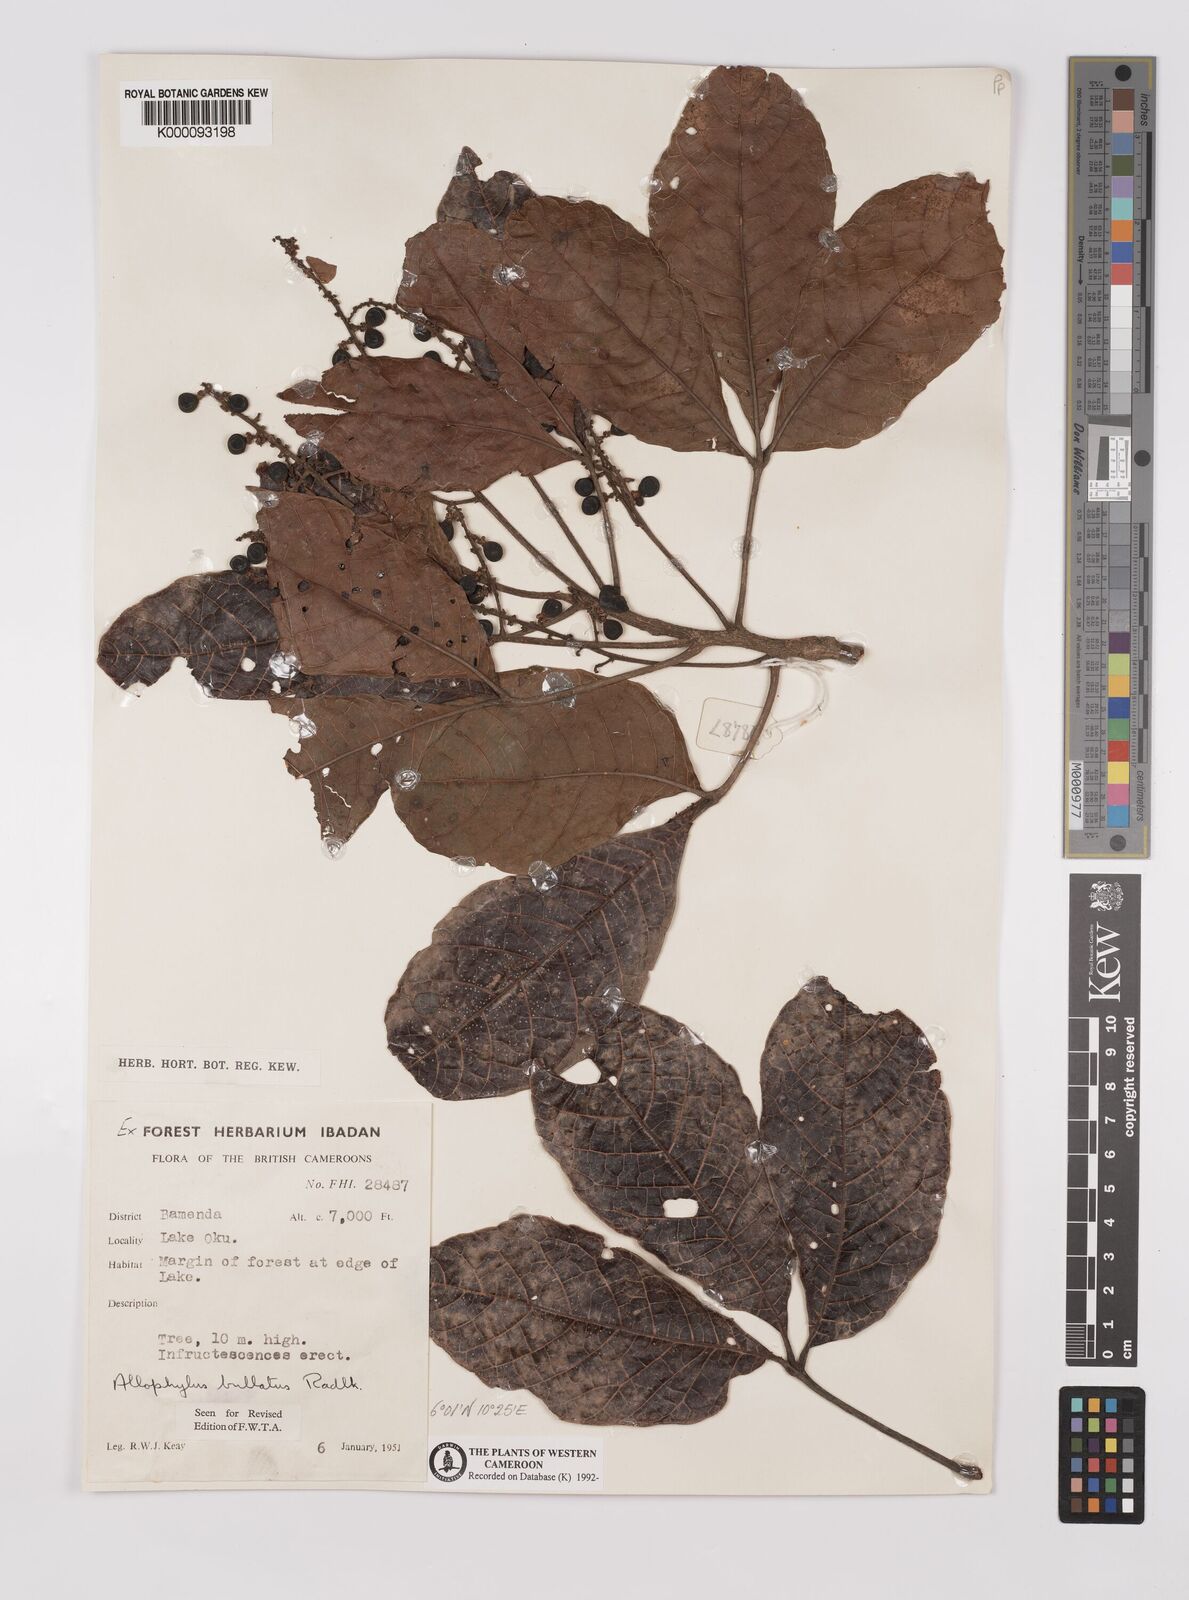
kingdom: Plantae
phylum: Tracheophyta
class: Magnoliopsida
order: Sapindales
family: Sapindaceae
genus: Allophylus
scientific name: Allophylus bullatus
